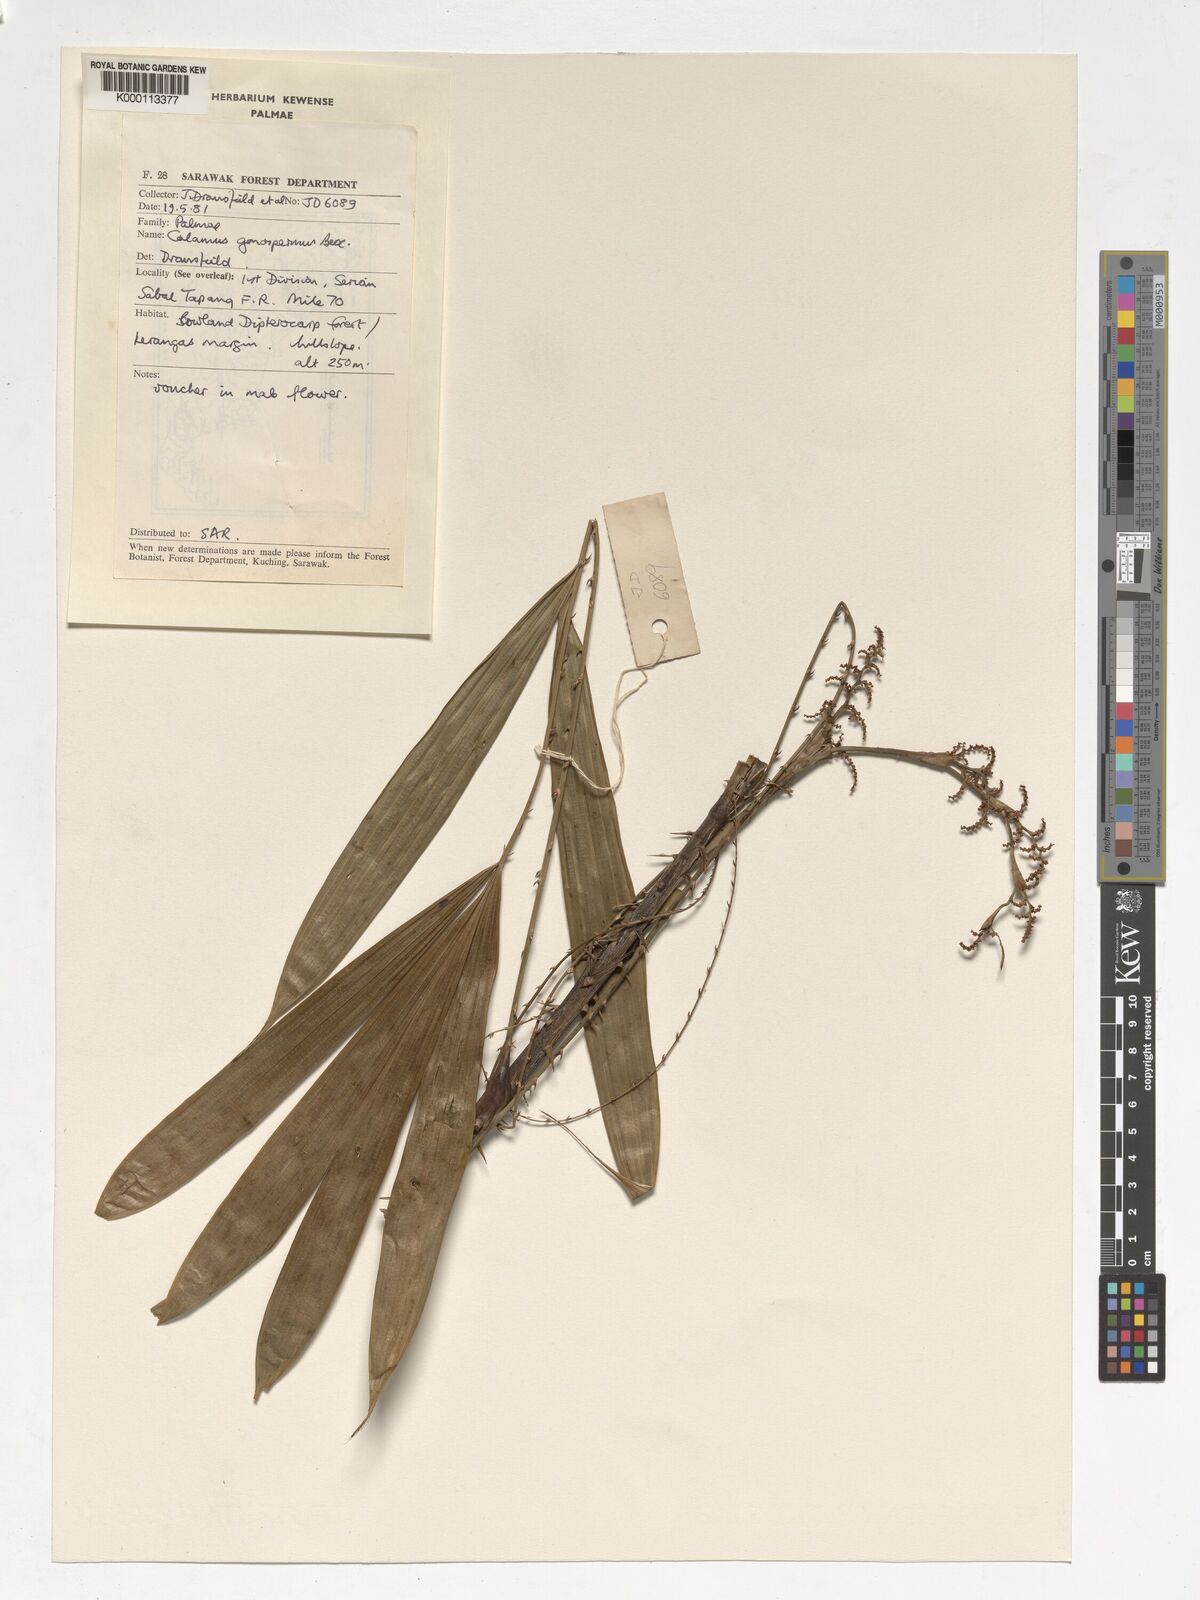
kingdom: Plantae
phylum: Tracheophyta
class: Liliopsida
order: Arecales
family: Arecaceae
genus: Calamus
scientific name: Calamus gonospermus
